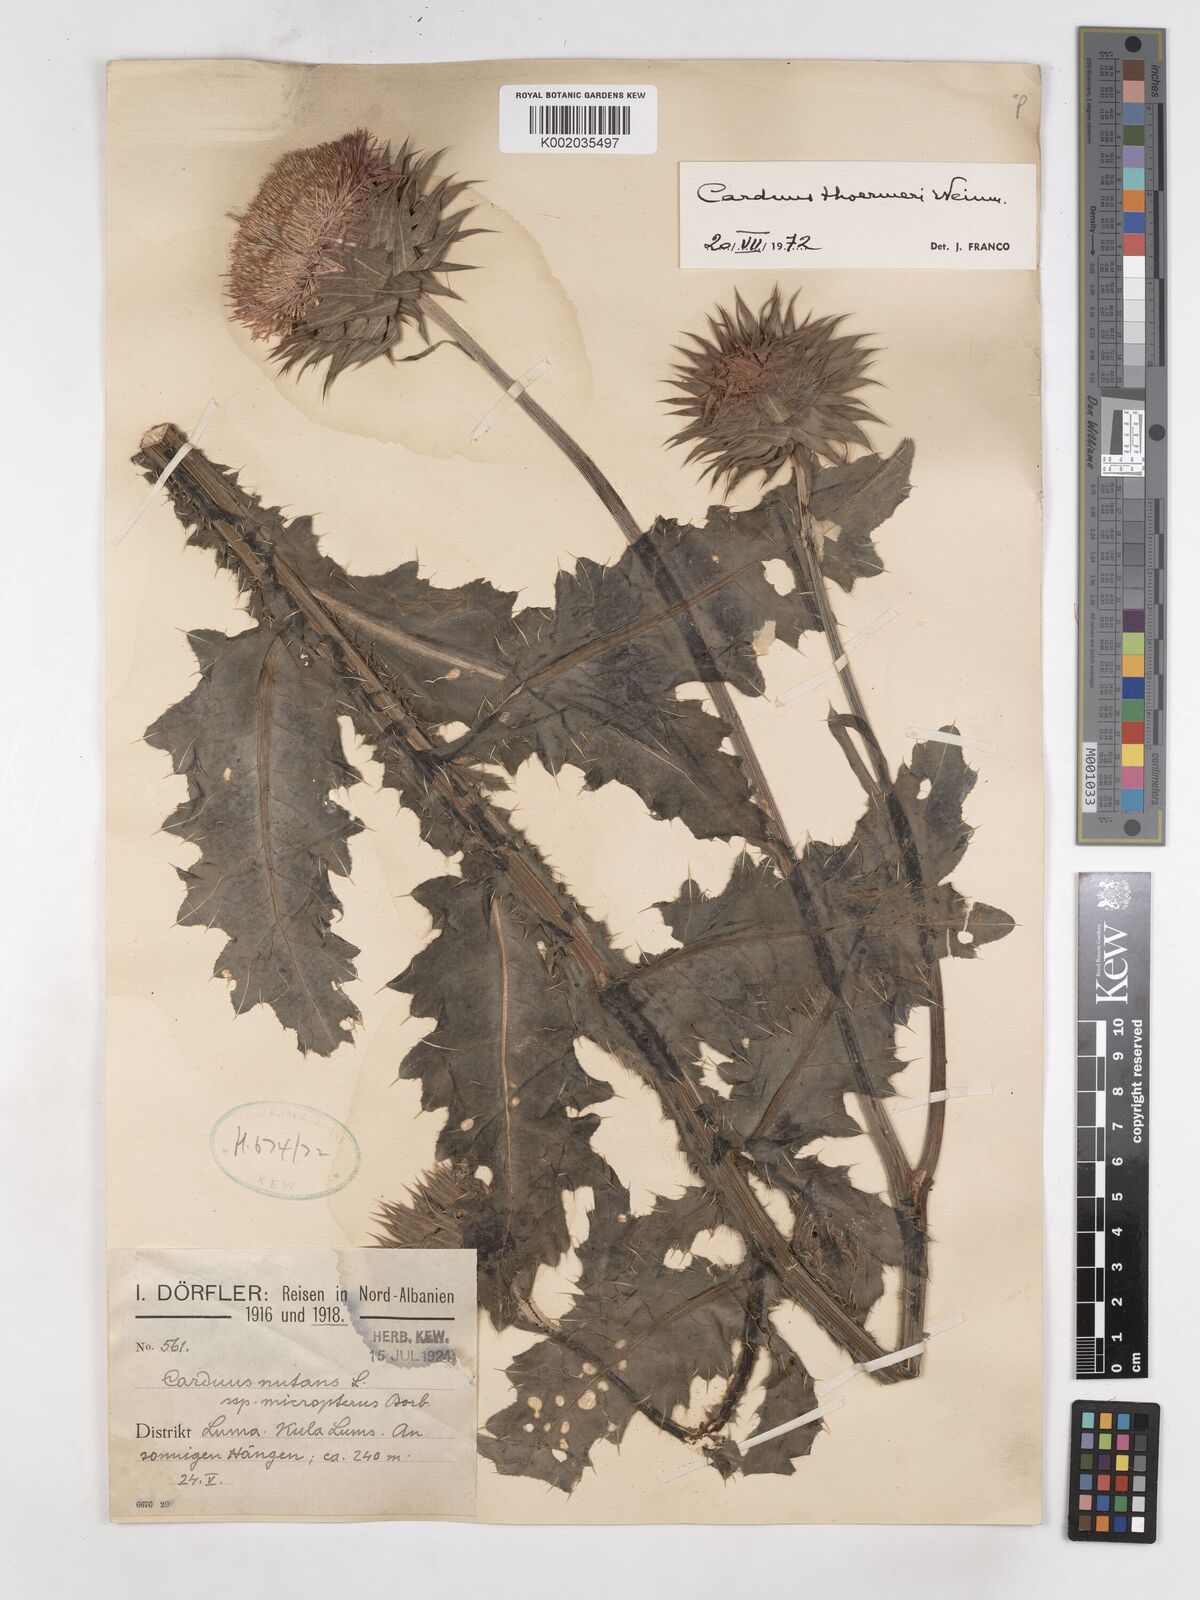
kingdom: Plantae
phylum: Tracheophyta
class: Magnoliopsida
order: Asterales
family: Asteraceae
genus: Carduus
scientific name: Carduus nutans
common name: Musk thistle
